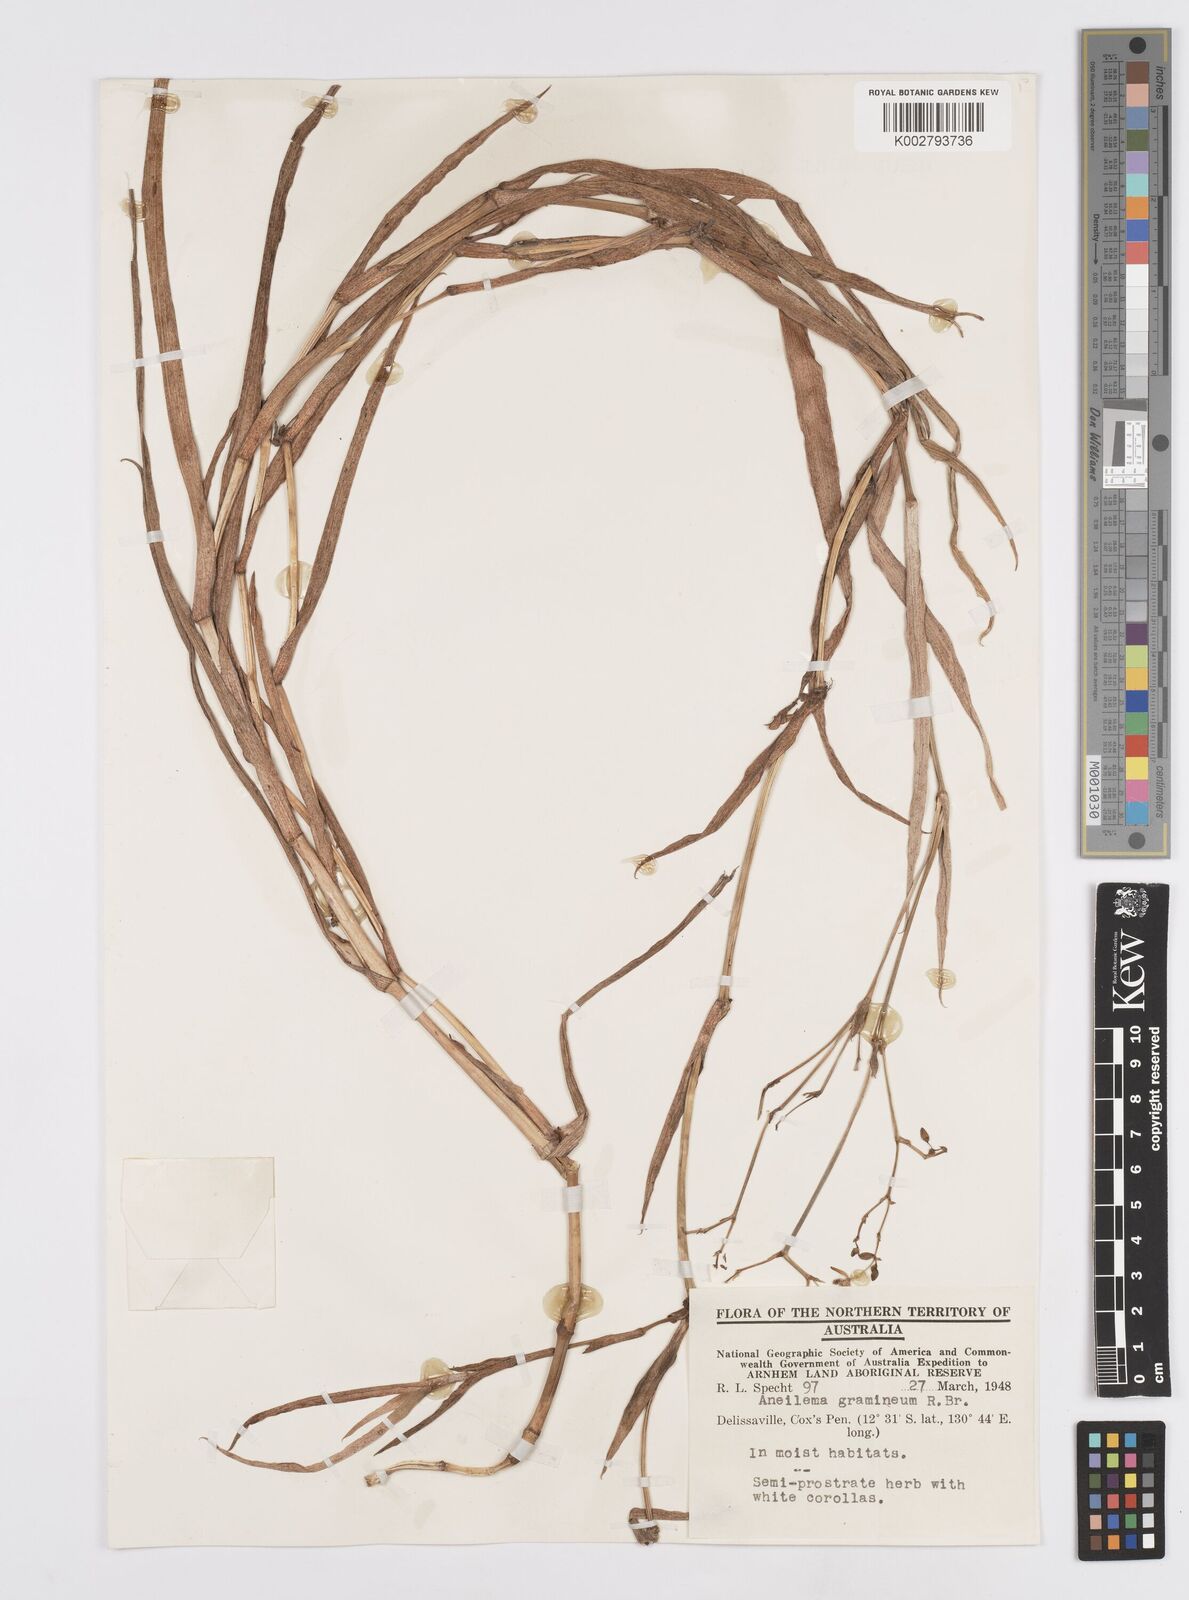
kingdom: Plantae
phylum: Tracheophyta
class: Liliopsida
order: Commelinales
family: Commelinaceae
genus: Murdannia
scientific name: Murdannia graminea
